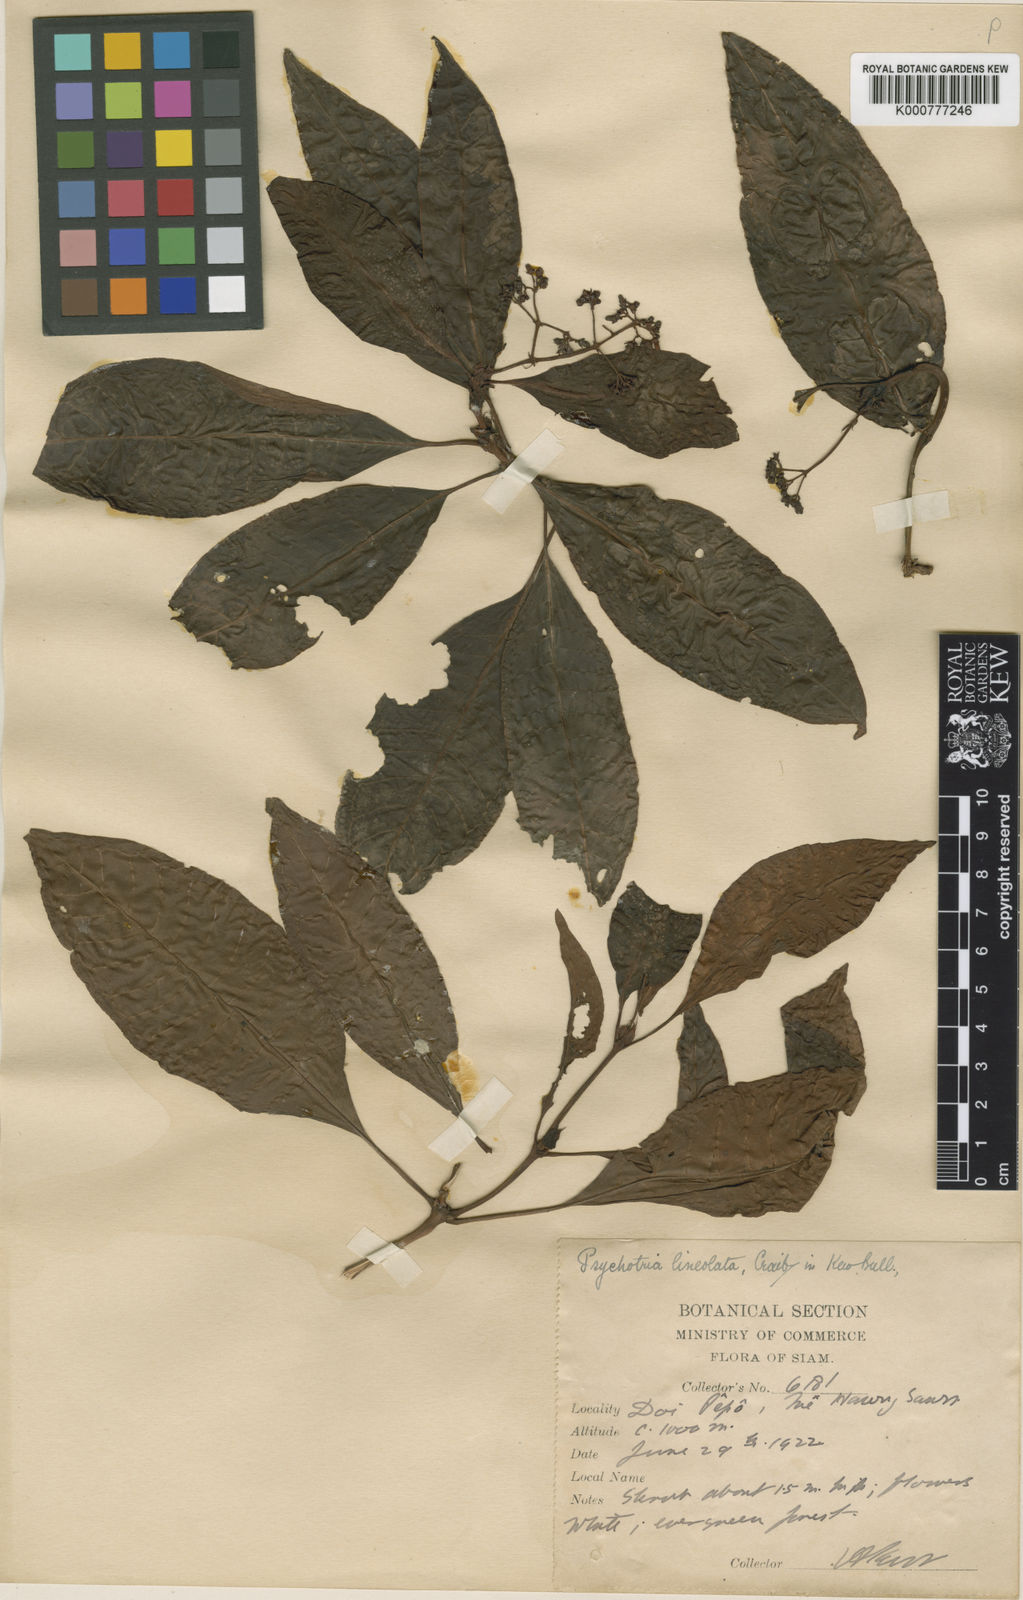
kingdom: Plantae
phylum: Tracheophyta
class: Magnoliopsida
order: Gentianales
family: Rubiaceae
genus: Psychotria
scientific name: Psychotria thomsonii
